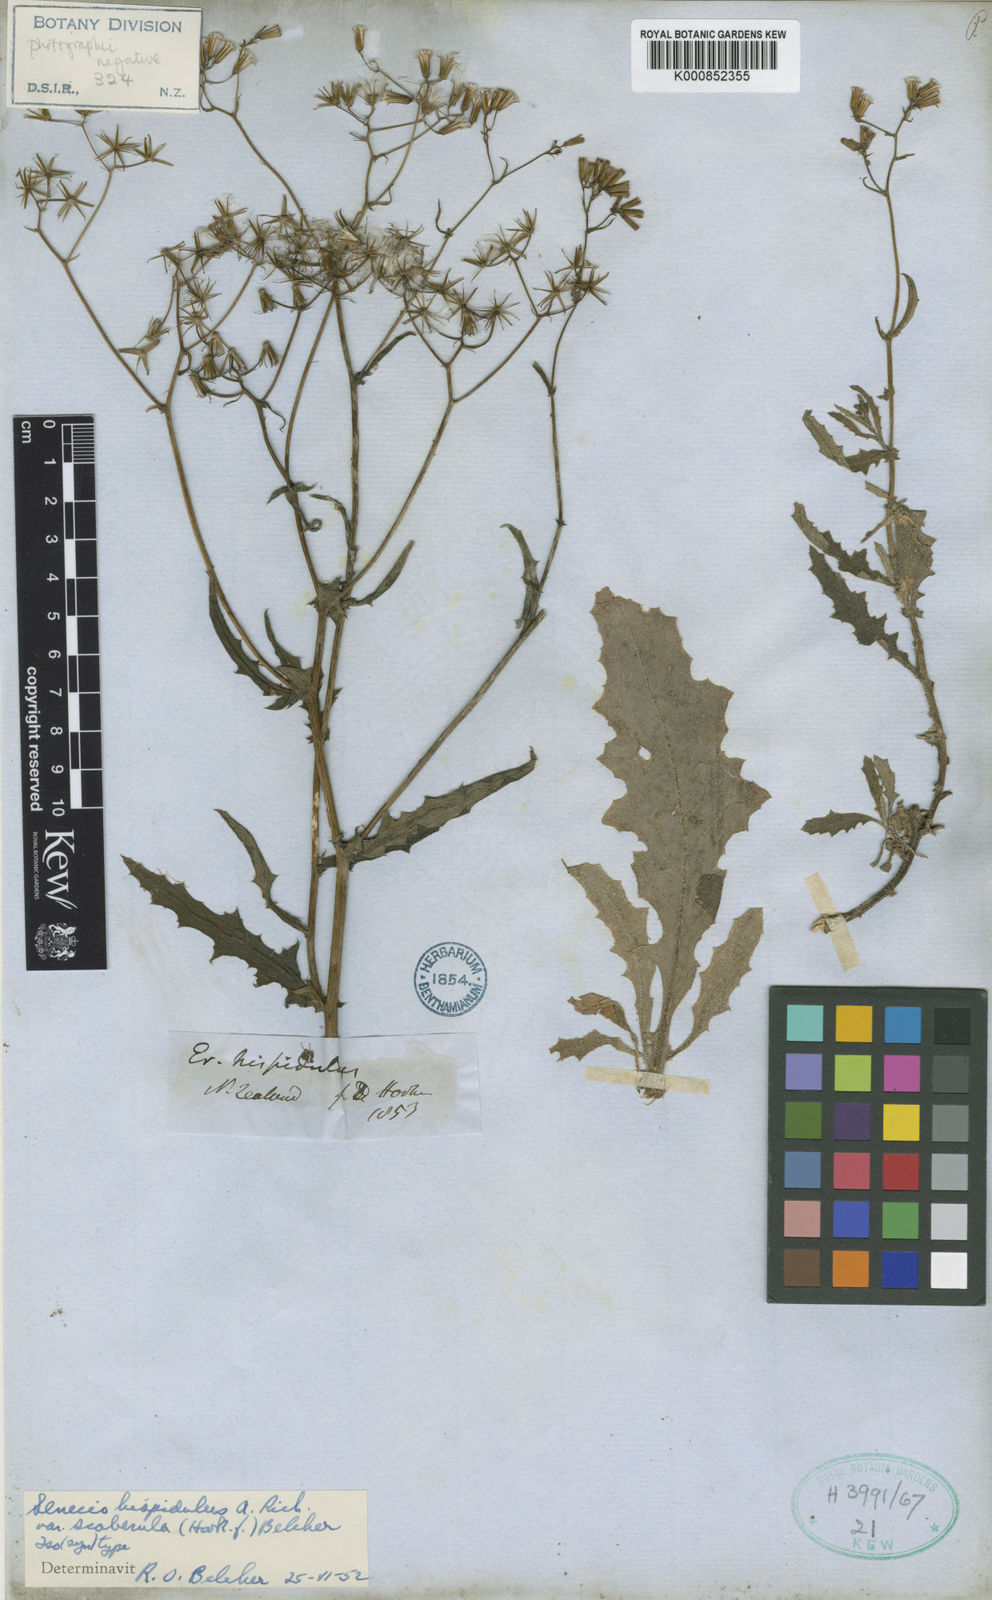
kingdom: Plantae
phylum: Tracheophyta
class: Magnoliopsida
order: Asterales
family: Asteraceae
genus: Senecio
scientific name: Senecio hispidulus
